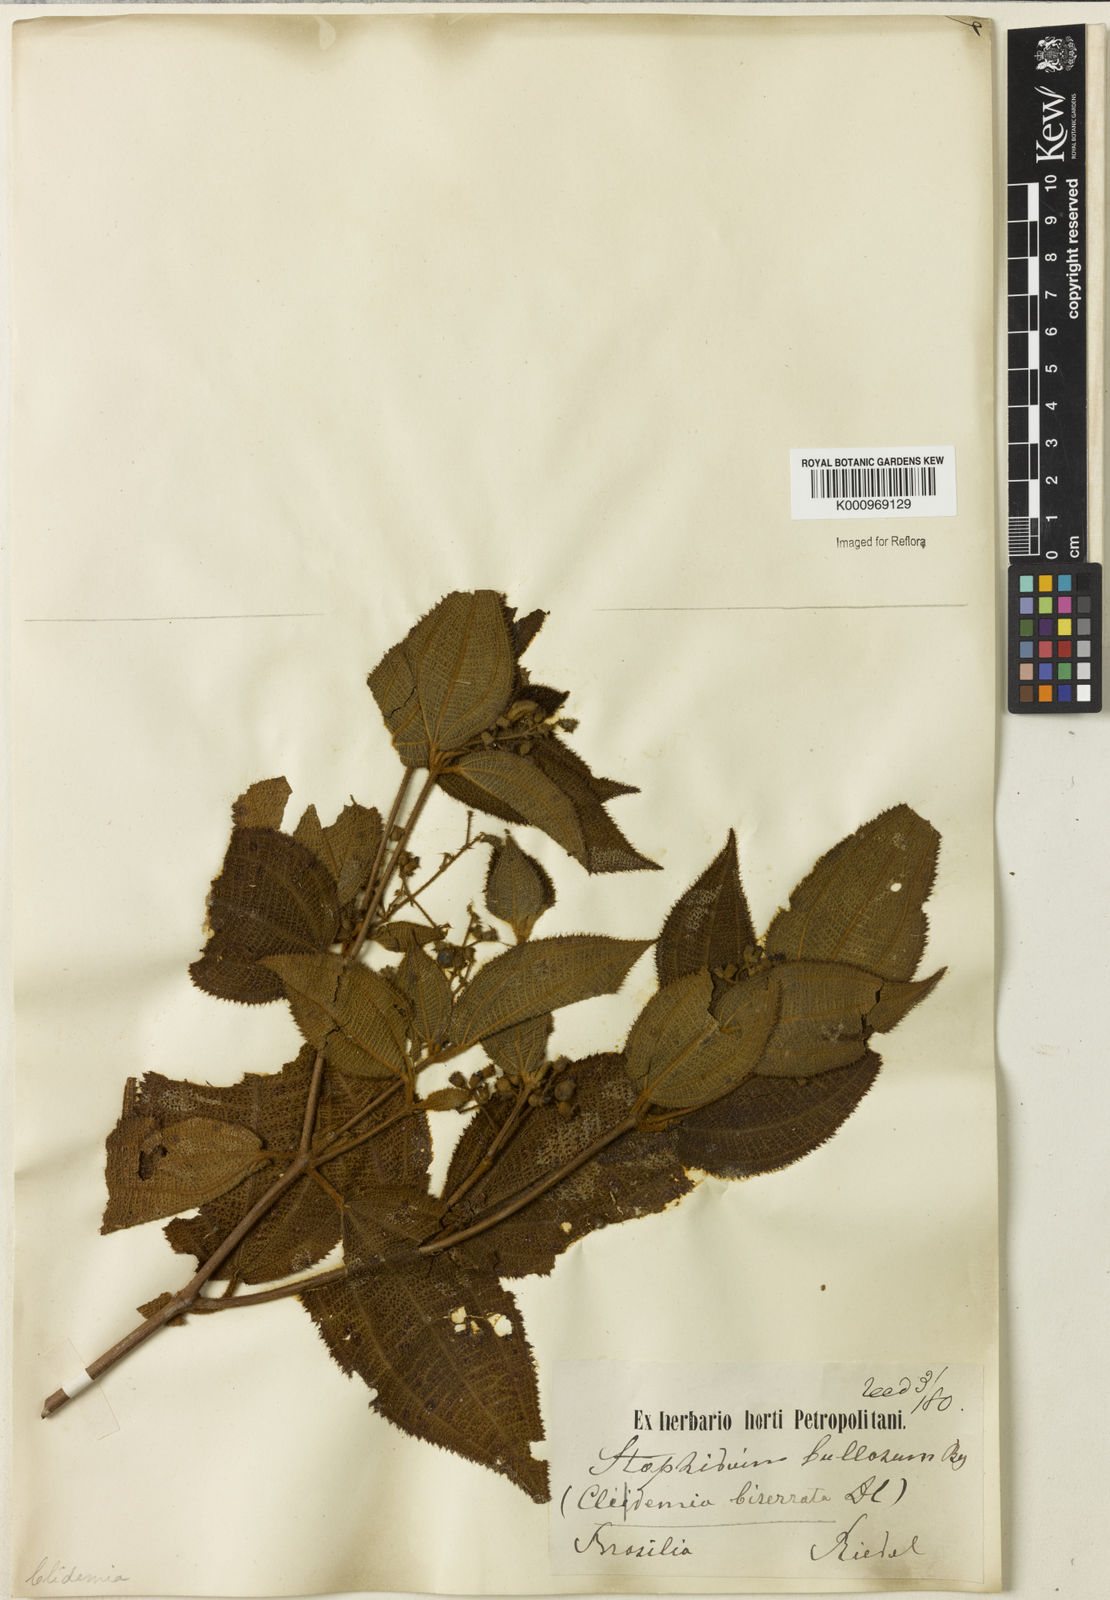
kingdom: Plantae
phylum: Tracheophyta
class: Magnoliopsida
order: Myrtales
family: Melastomataceae
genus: Miconia
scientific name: Miconia biserrata
